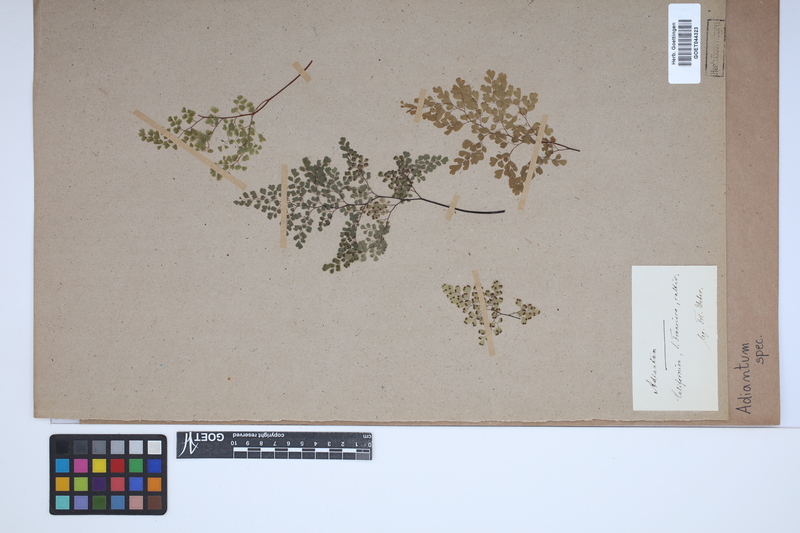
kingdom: Plantae
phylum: Tracheophyta
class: Polypodiopsida
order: Polypodiales
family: Pteridaceae
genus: Adiantum
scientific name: Adiantum
